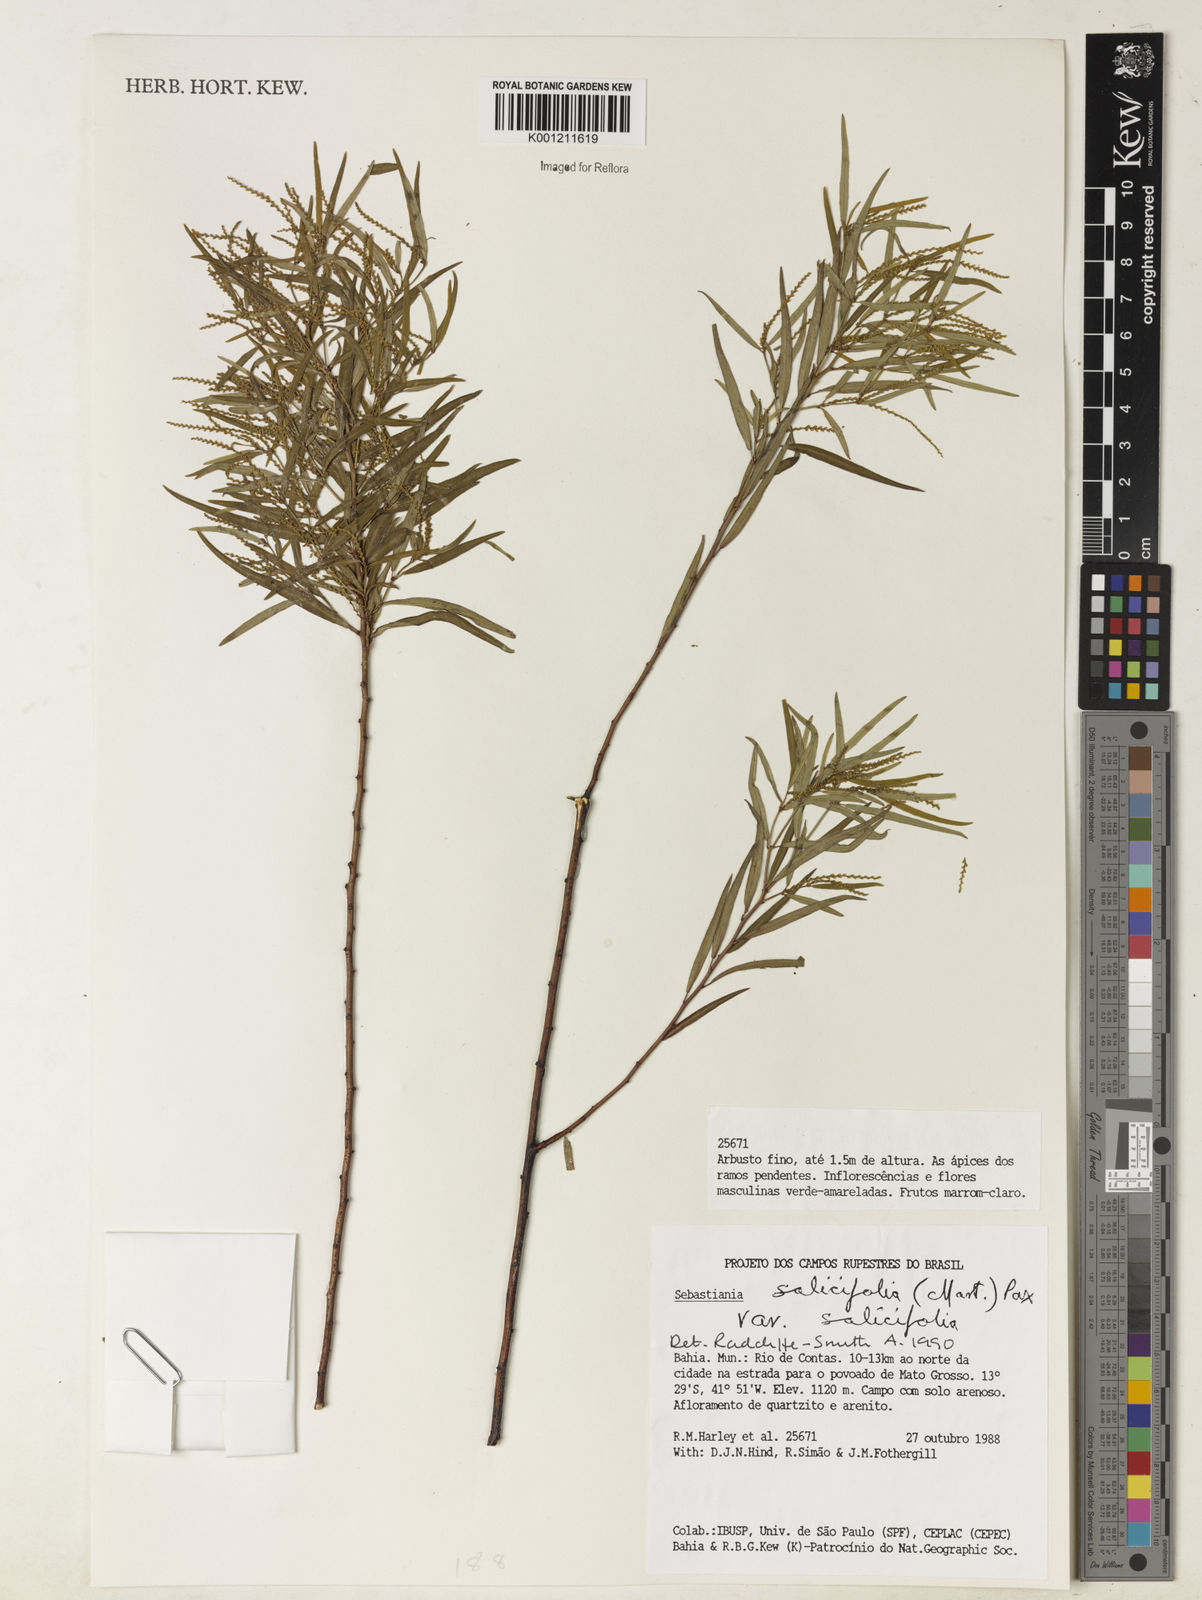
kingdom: Plantae
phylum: Tracheophyta
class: Magnoliopsida
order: Malpighiales
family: Euphorbiaceae
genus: Microstachys
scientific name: Microstachys
